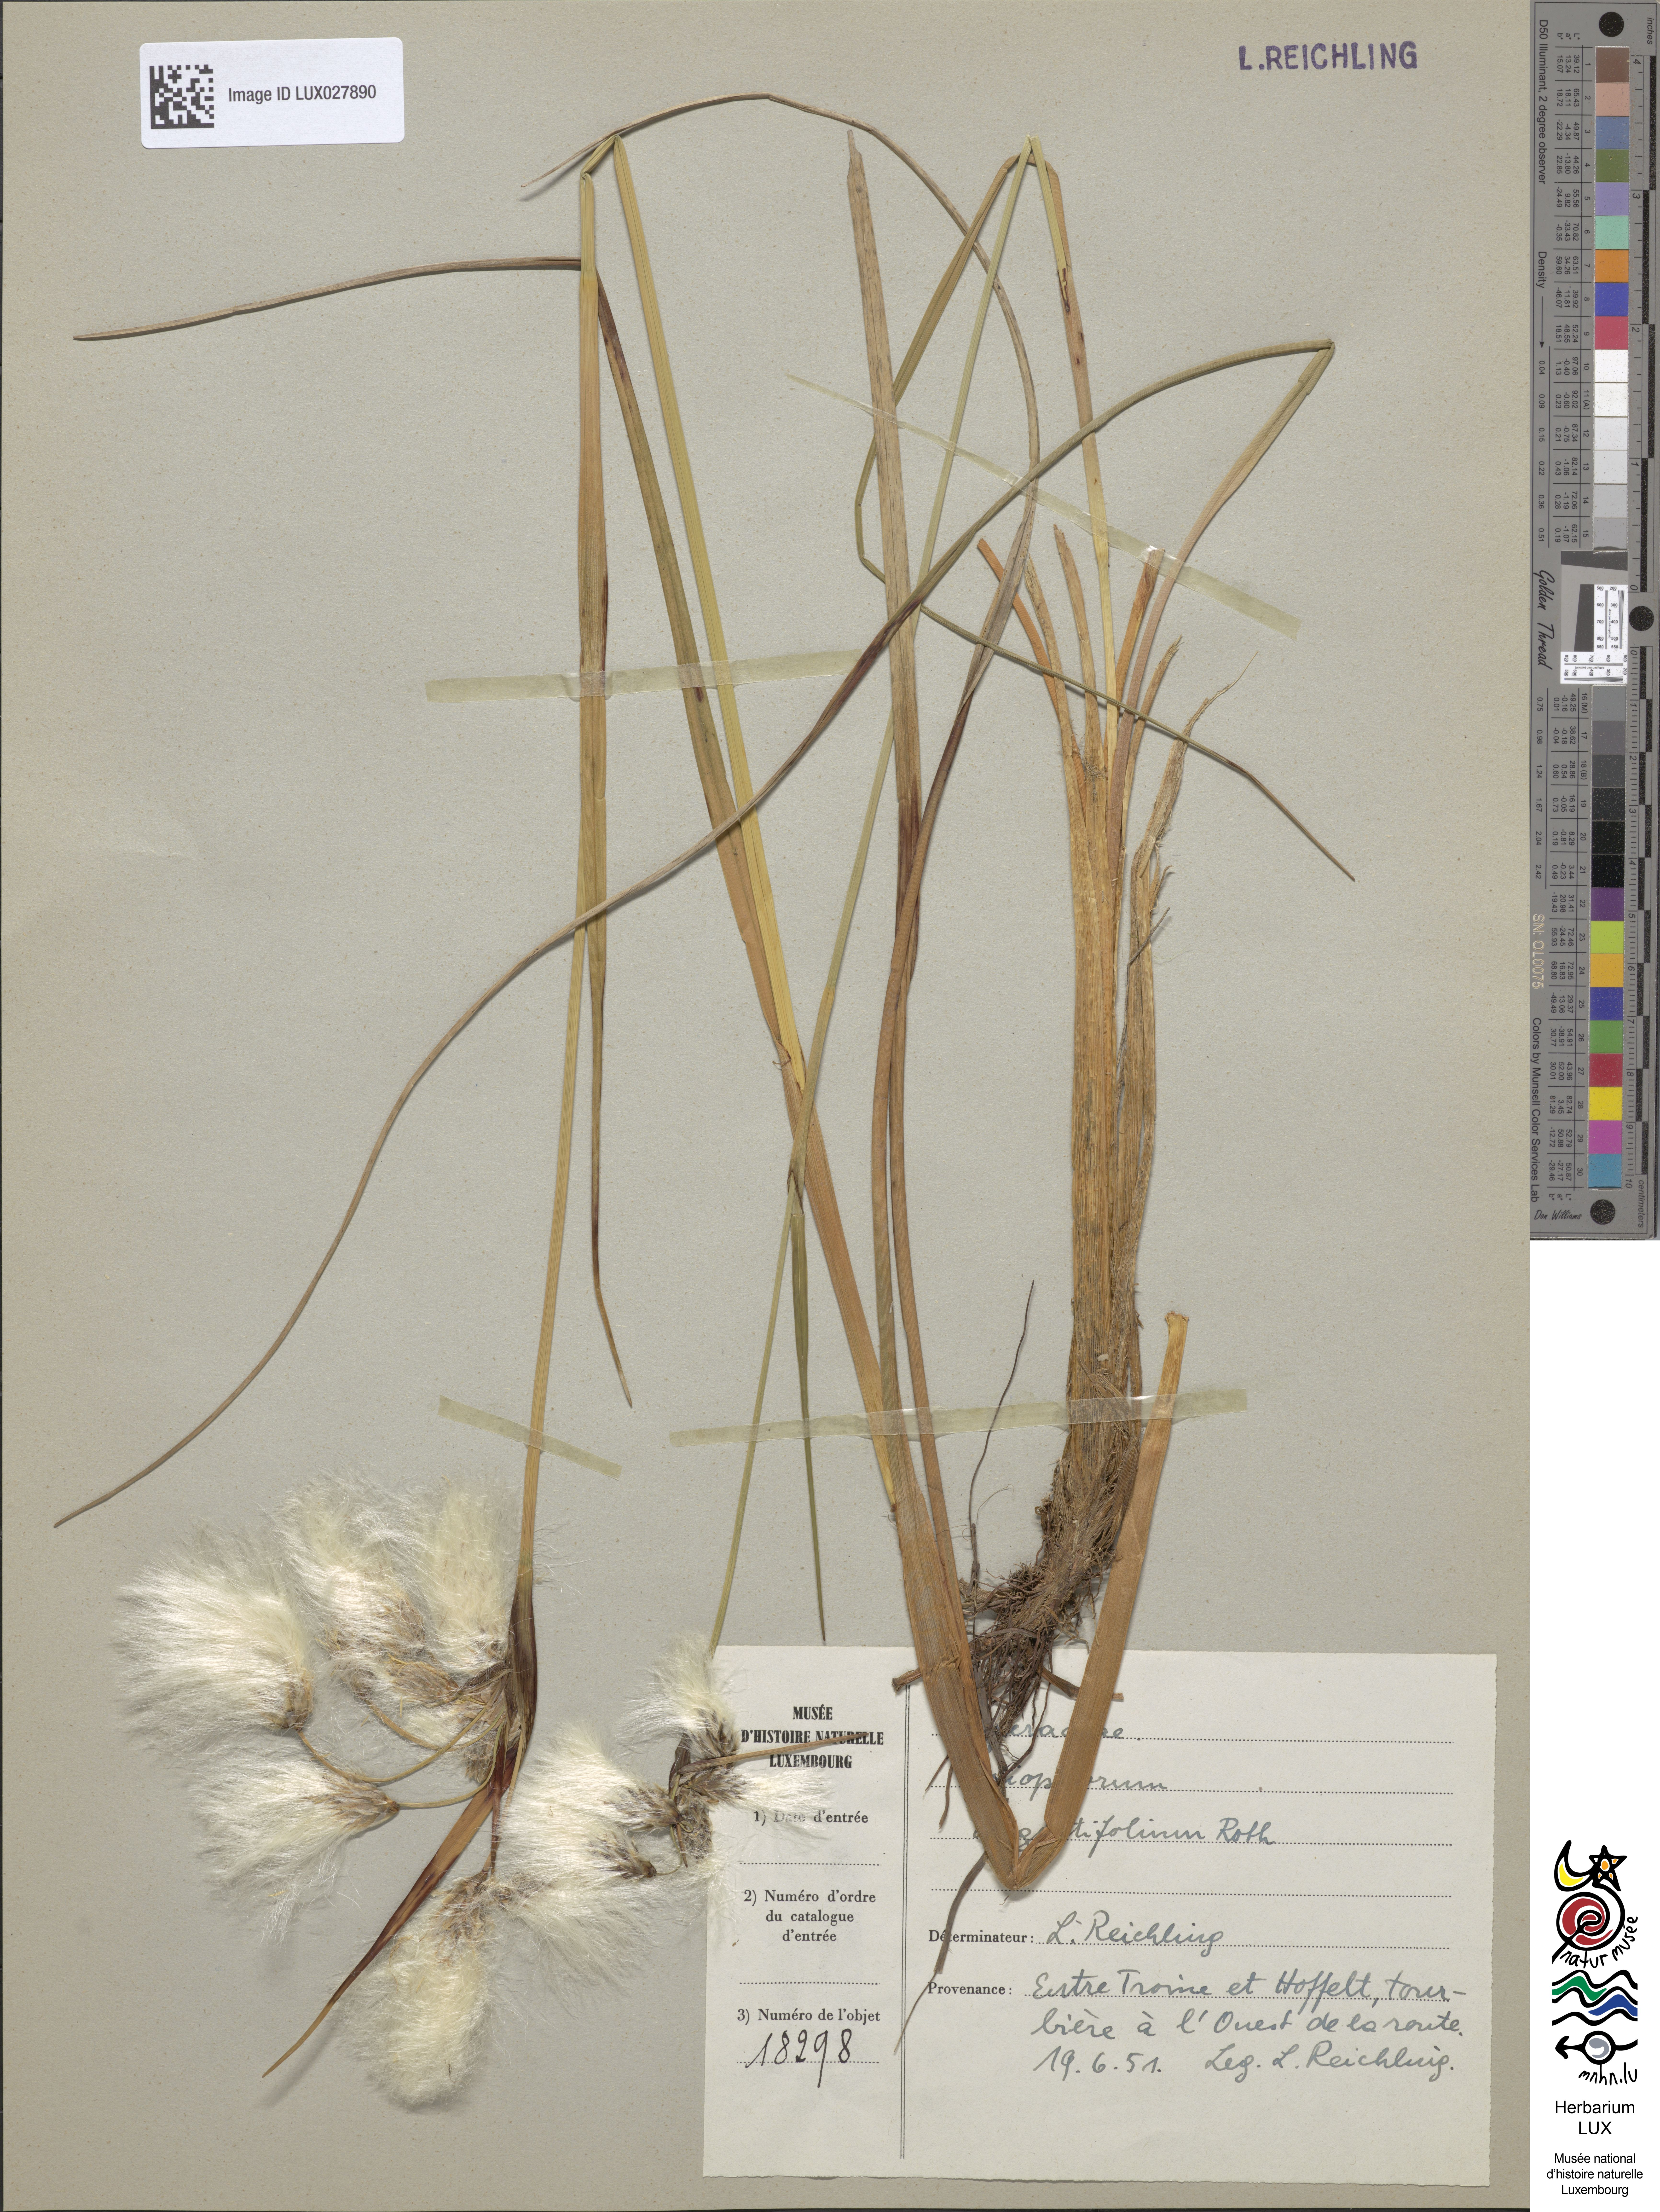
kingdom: Plantae
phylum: Tracheophyta
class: Liliopsida
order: Poales
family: Cyperaceae
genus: Eriophorum
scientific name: Eriophorum angustifolium
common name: Common cottongrass
